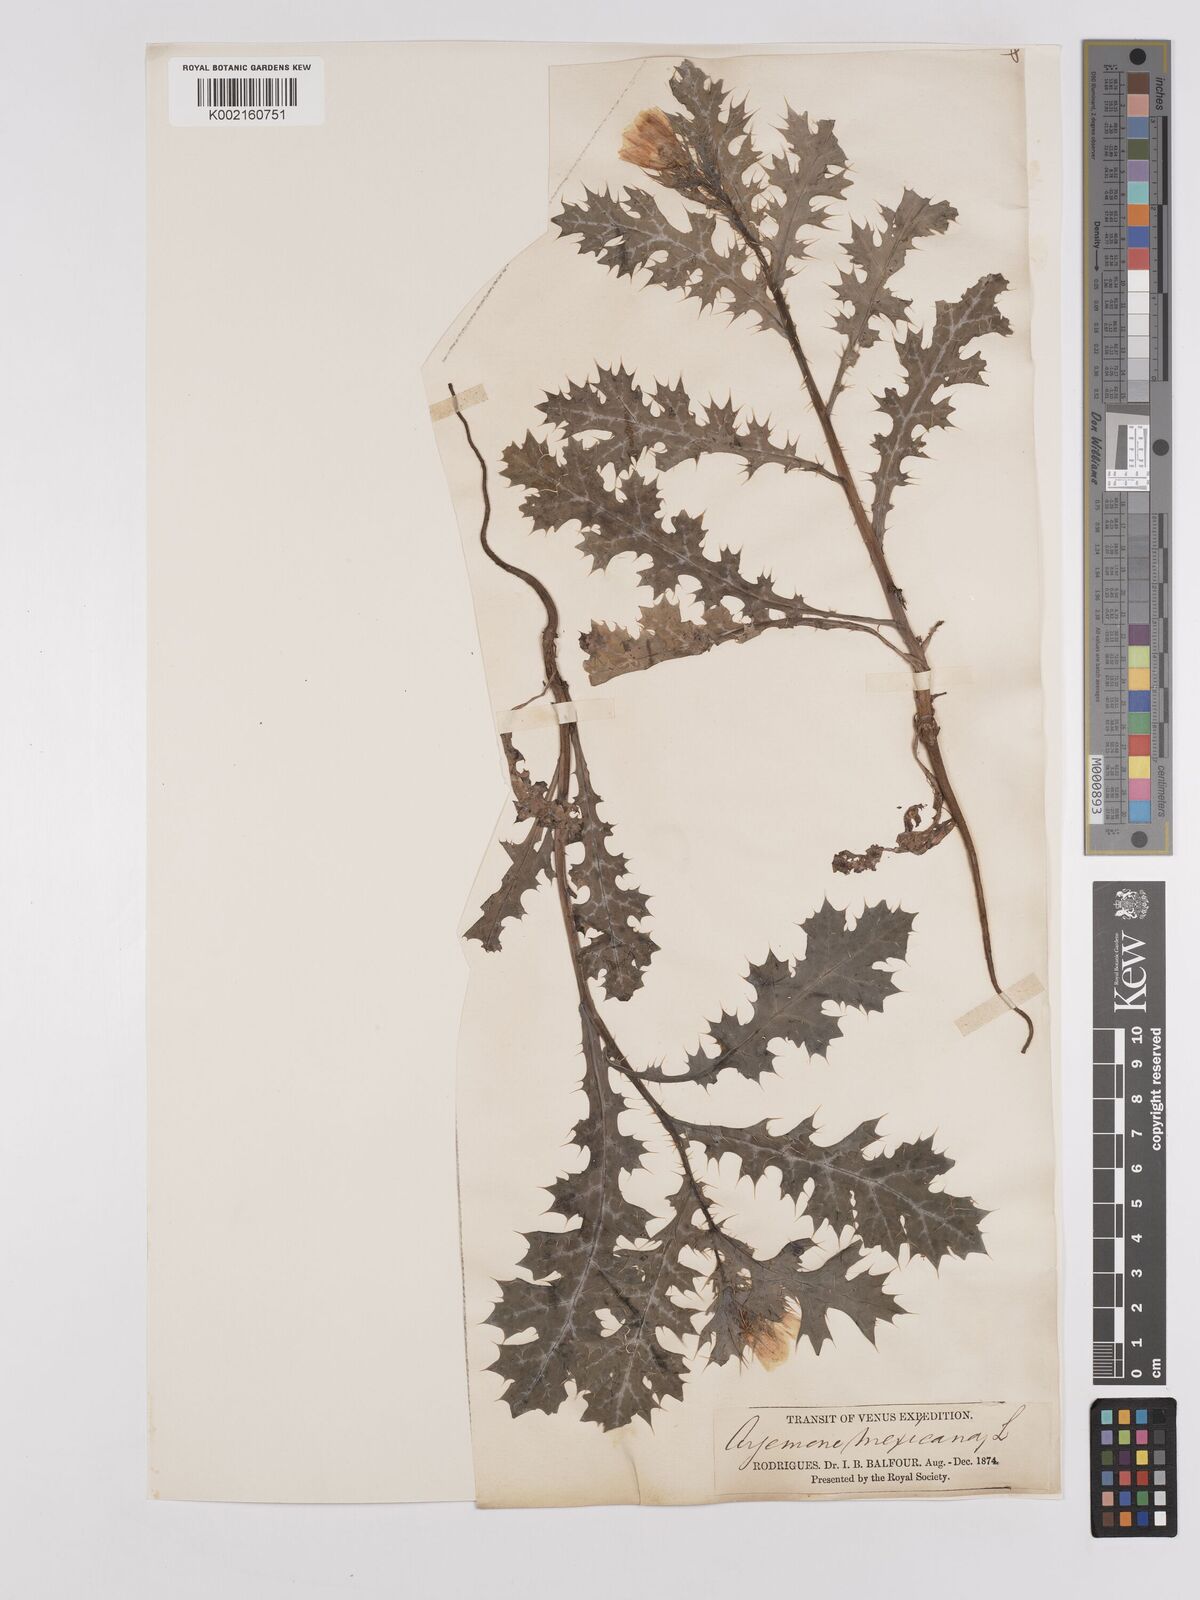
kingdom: Plantae
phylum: Tracheophyta
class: Magnoliopsida
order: Ranunculales
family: Papaveraceae
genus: Argemone
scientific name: Argemone mexicana
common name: Mexican poppy
